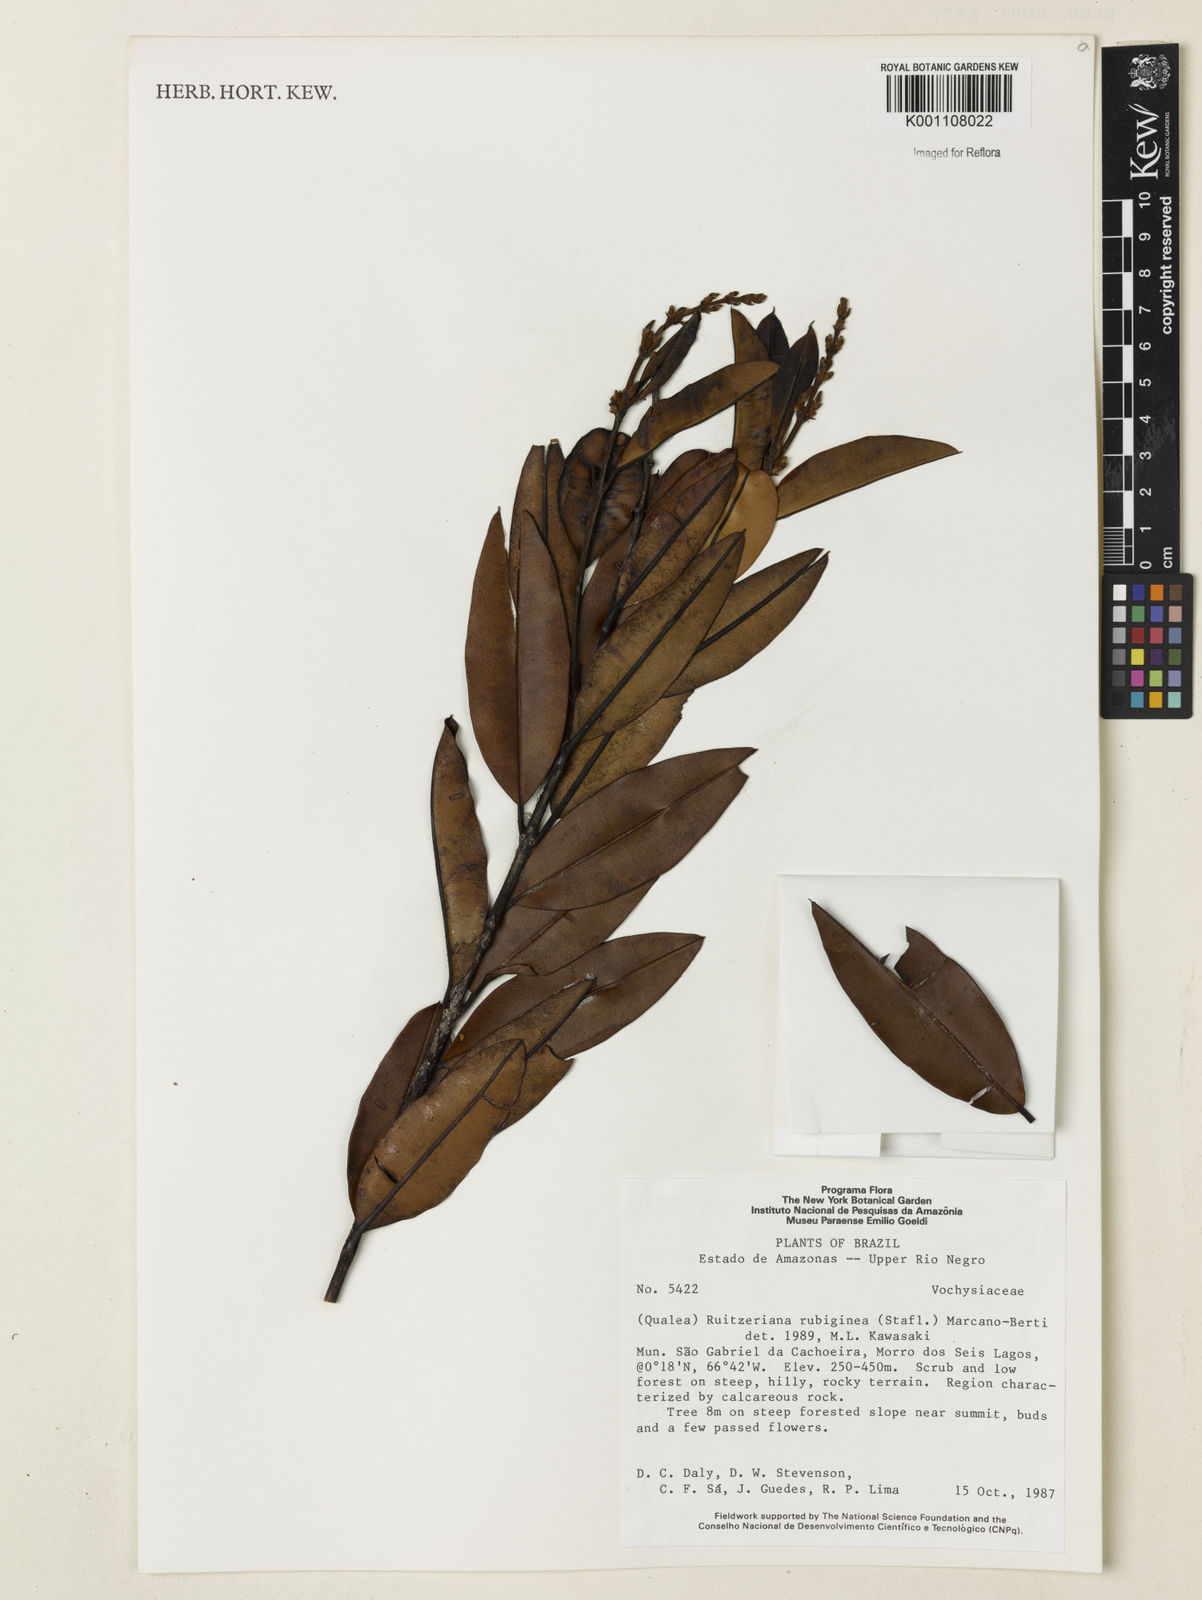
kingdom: Plantae
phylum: Tracheophyta
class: Magnoliopsida
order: Myrtales
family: Vochysiaceae
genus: Ruizterania
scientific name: Ruizterania ferruginea
